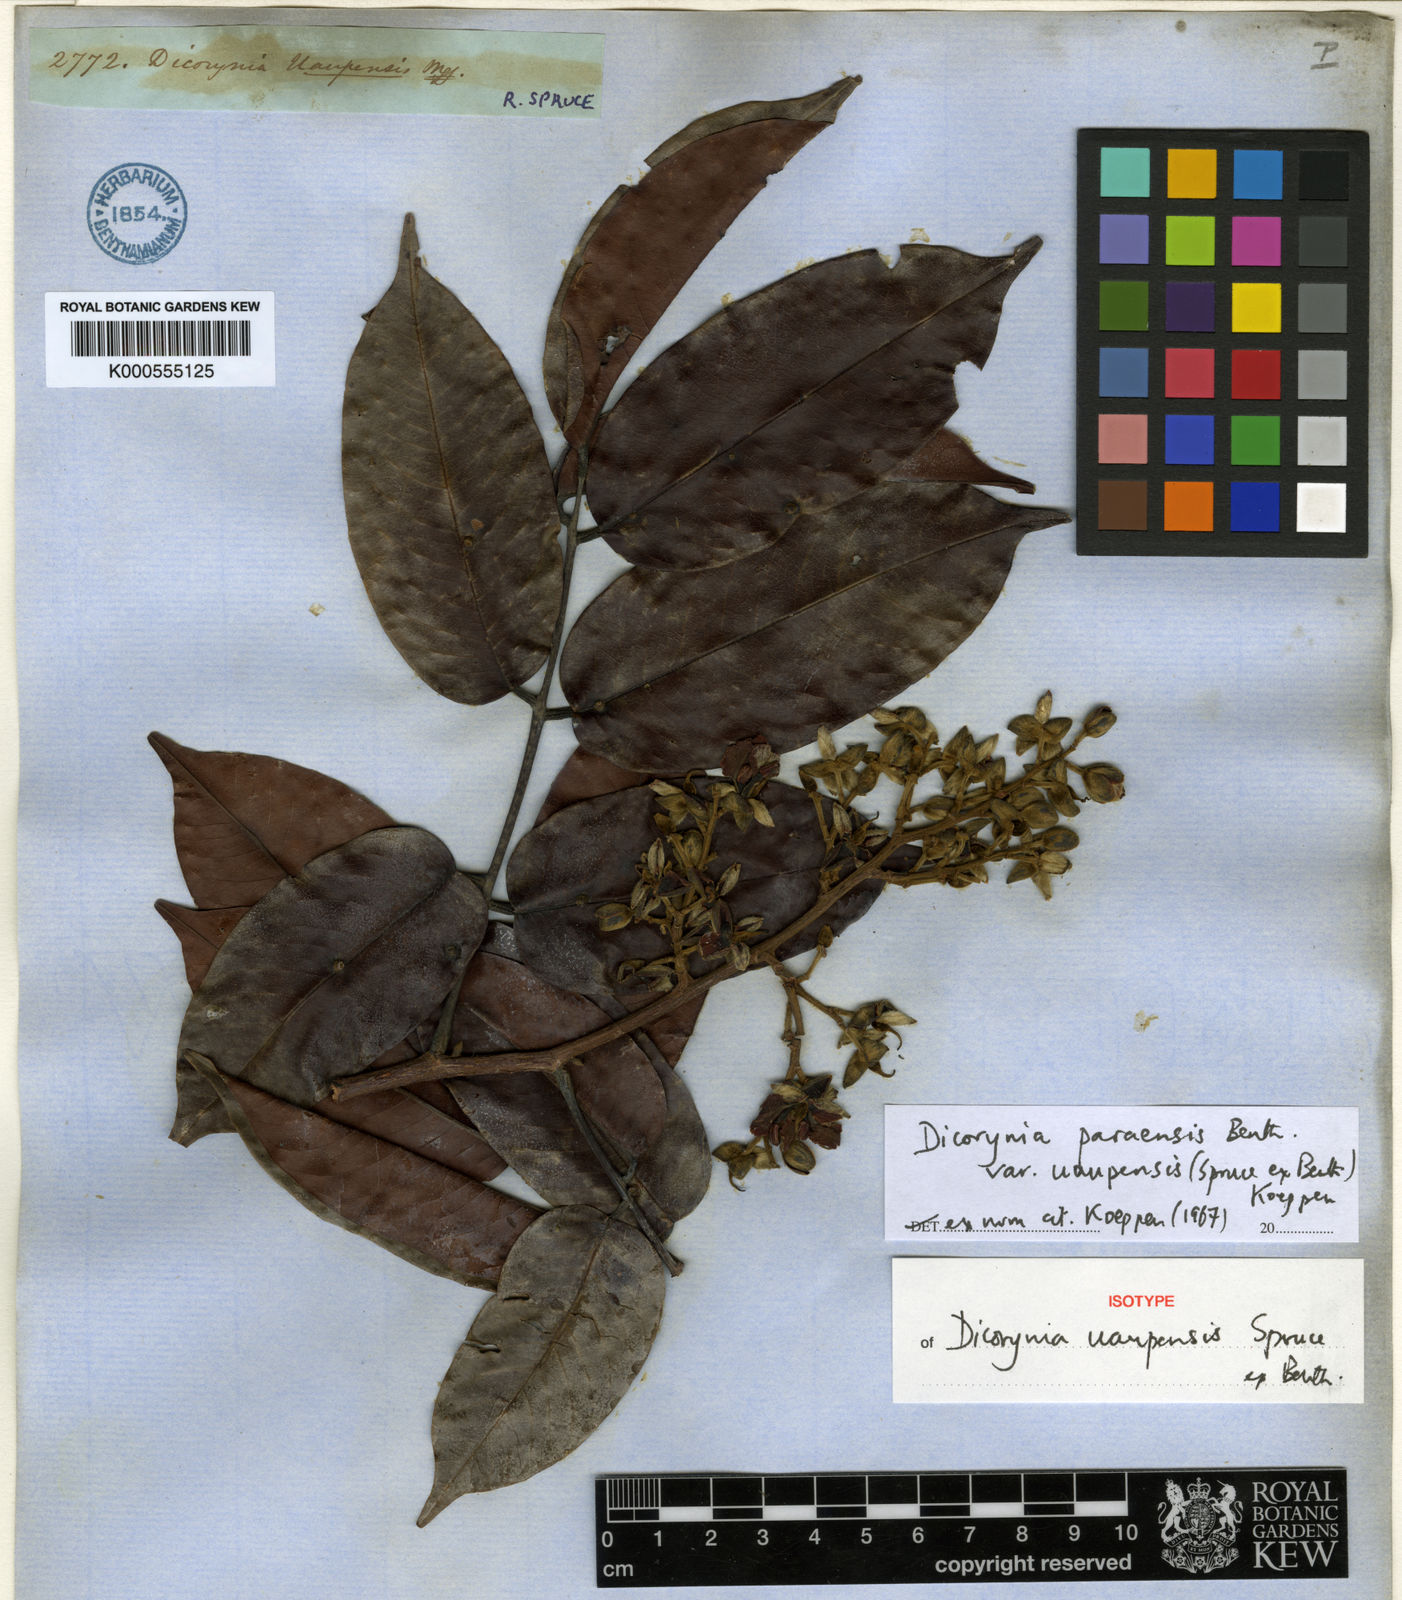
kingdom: Plantae
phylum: Tracheophyta
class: Magnoliopsida
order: Fabales
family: Fabaceae
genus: Dicorynia
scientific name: Dicorynia paraensis
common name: Angelique
